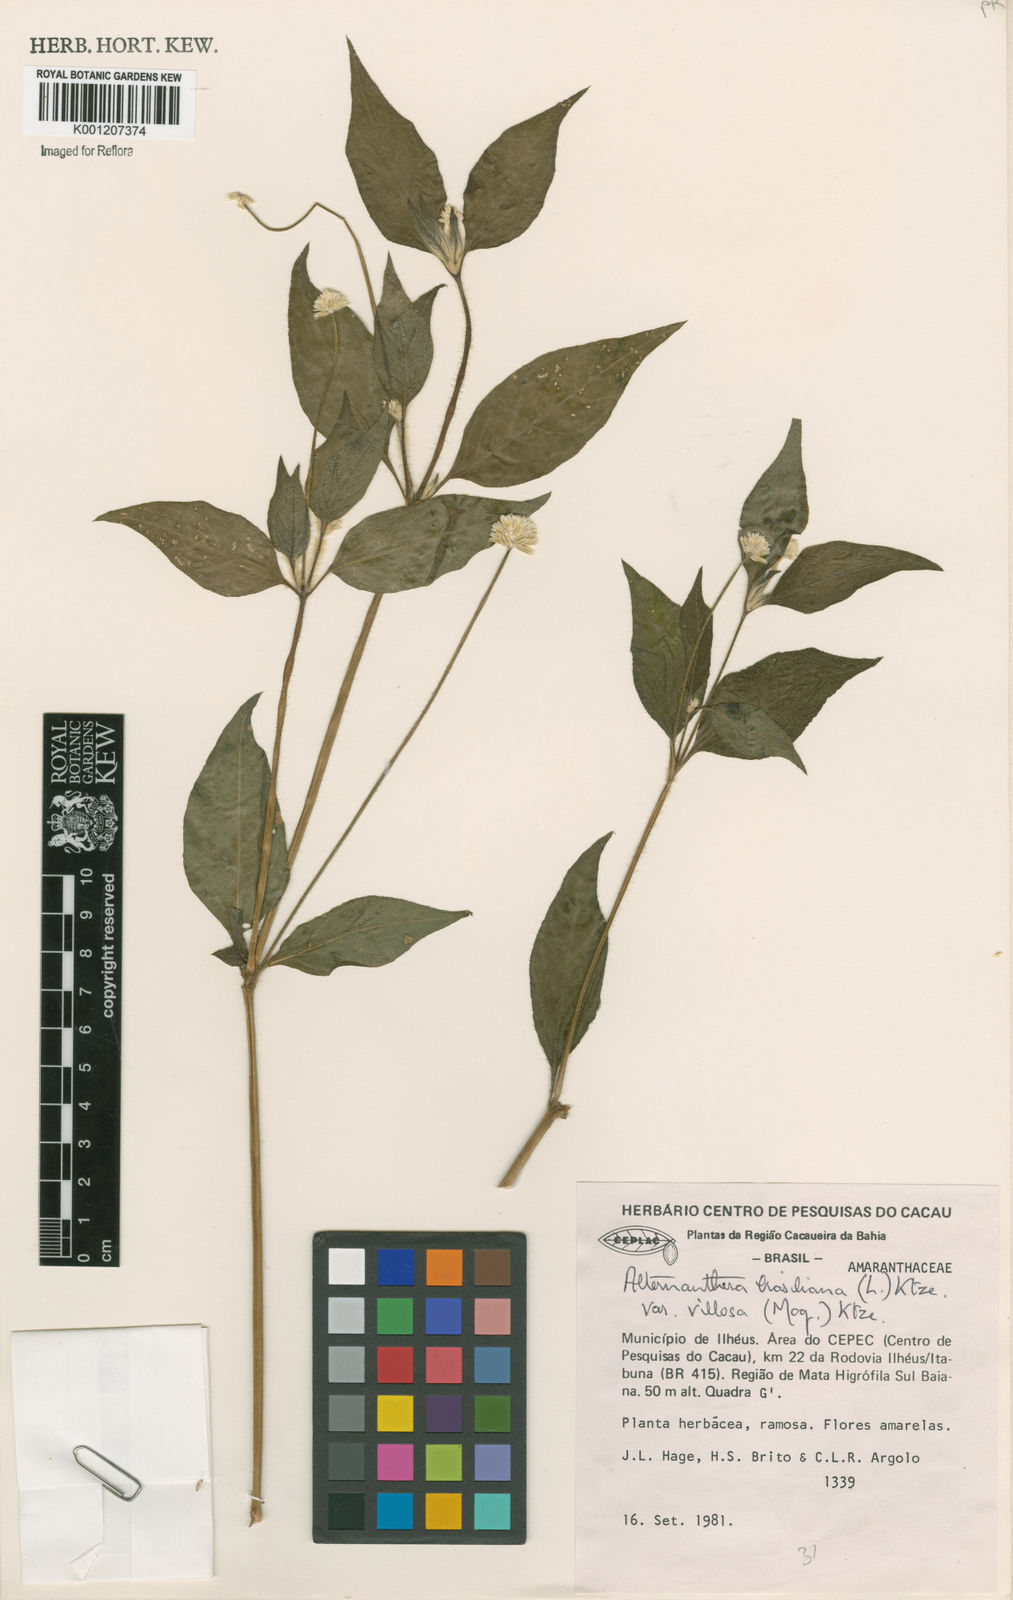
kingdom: Plantae
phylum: Tracheophyta
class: Magnoliopsida
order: Caryophyllales
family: Amaranthaceae
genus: Alternanthera
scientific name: Alternanthera ramosissima
